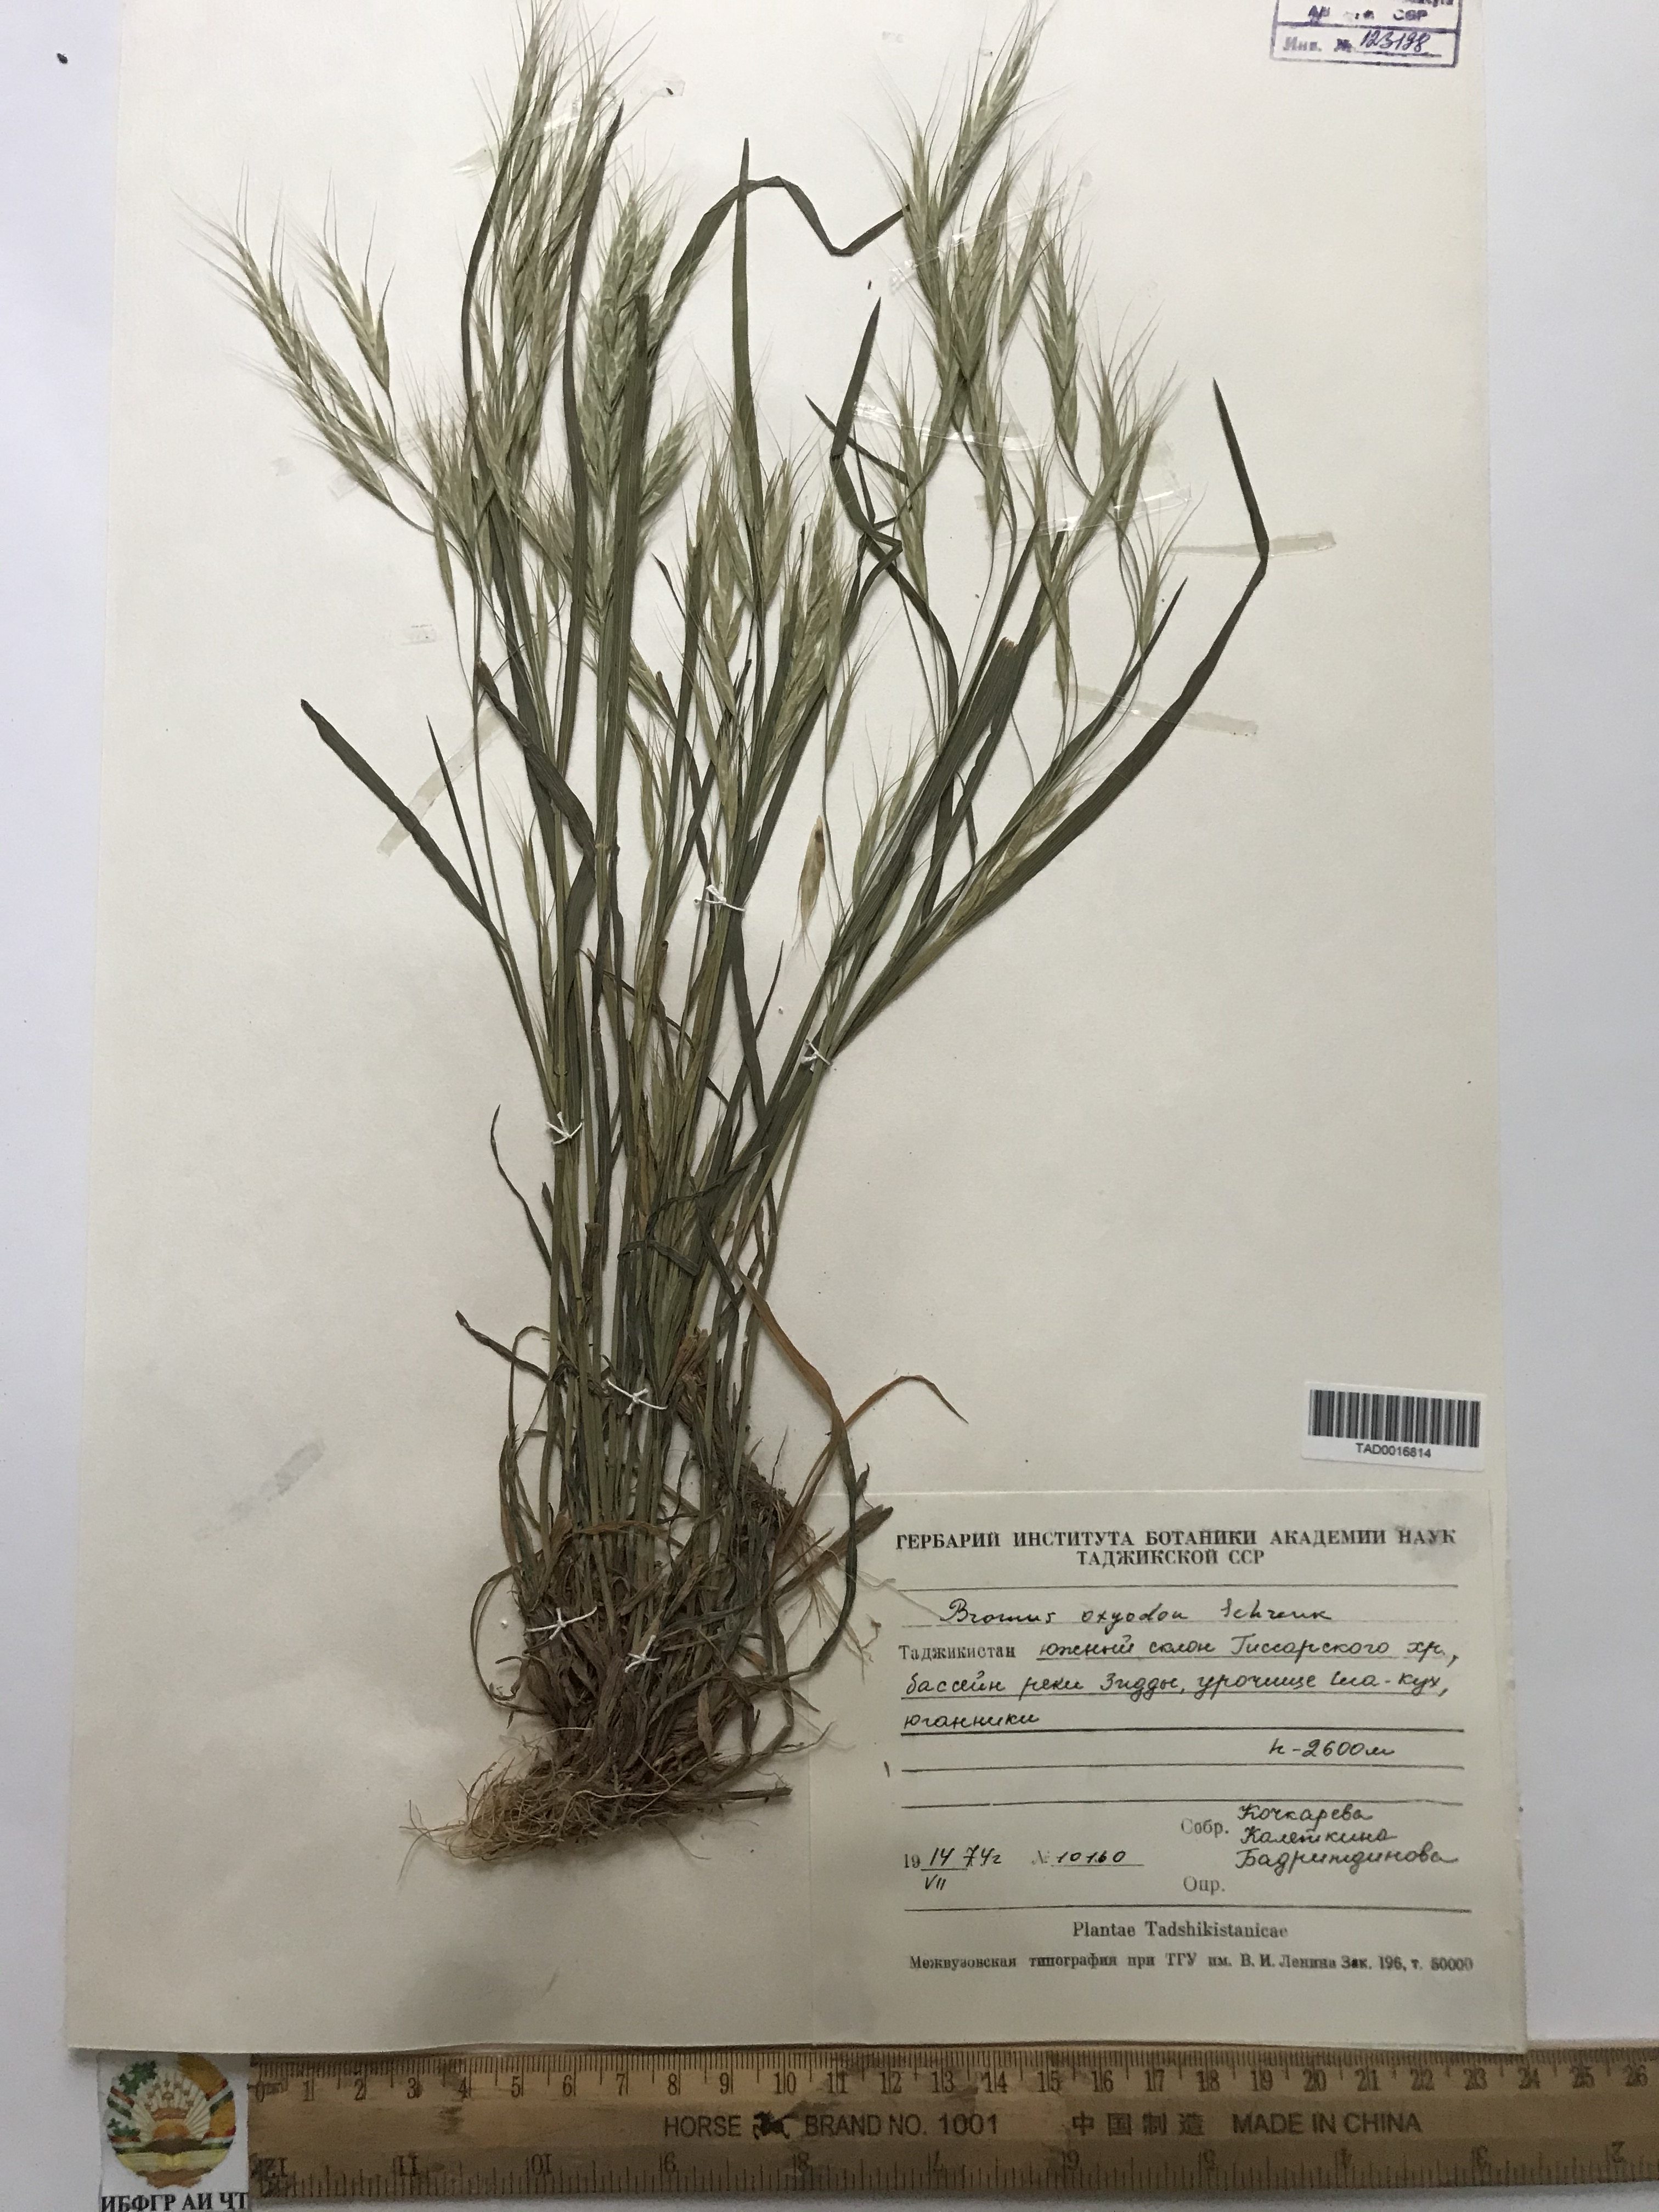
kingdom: Plantae
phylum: Tracheophyta
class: Liliopsida
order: Poales
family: Poaceae
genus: Bromus
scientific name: Bromus oxyodon
